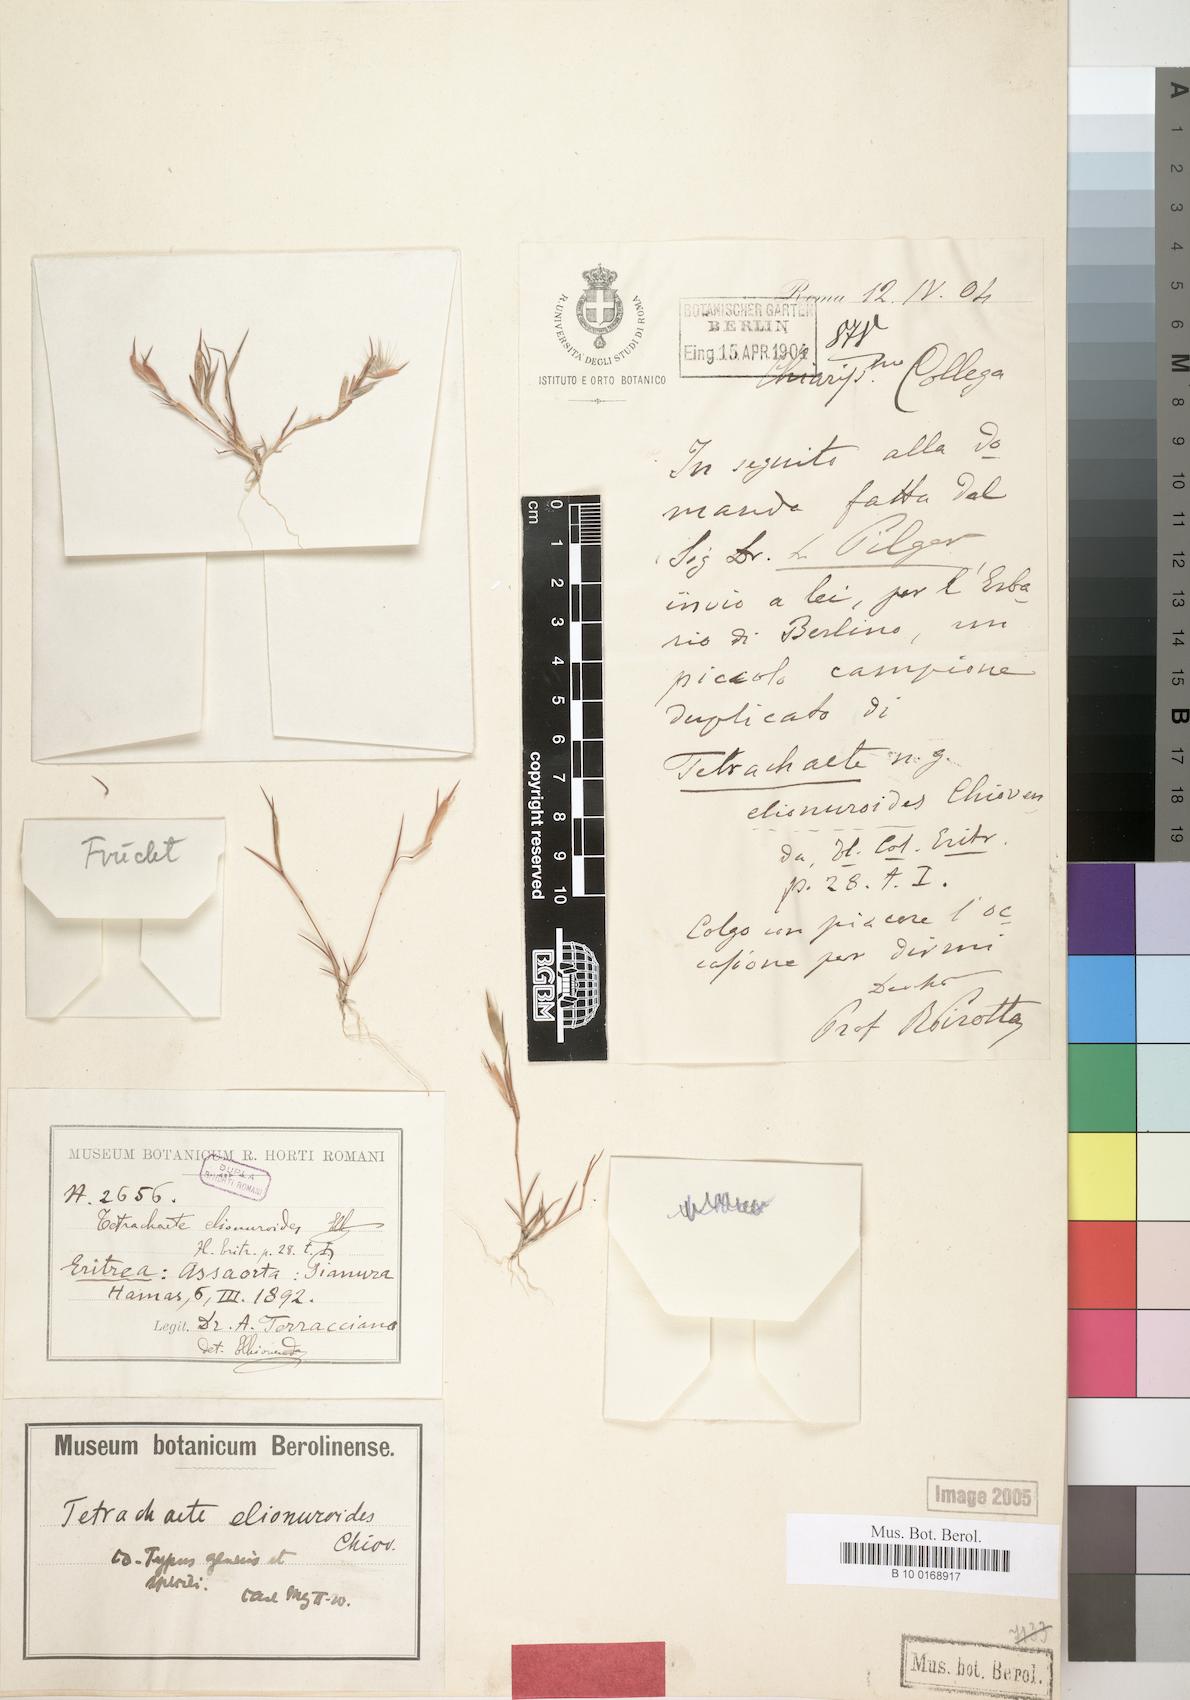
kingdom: Plantae
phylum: Tracheophyta
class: Liliopsida
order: Poales
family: Poaceae
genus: Tetrachaete
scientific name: Tetrachaete elionuroides
